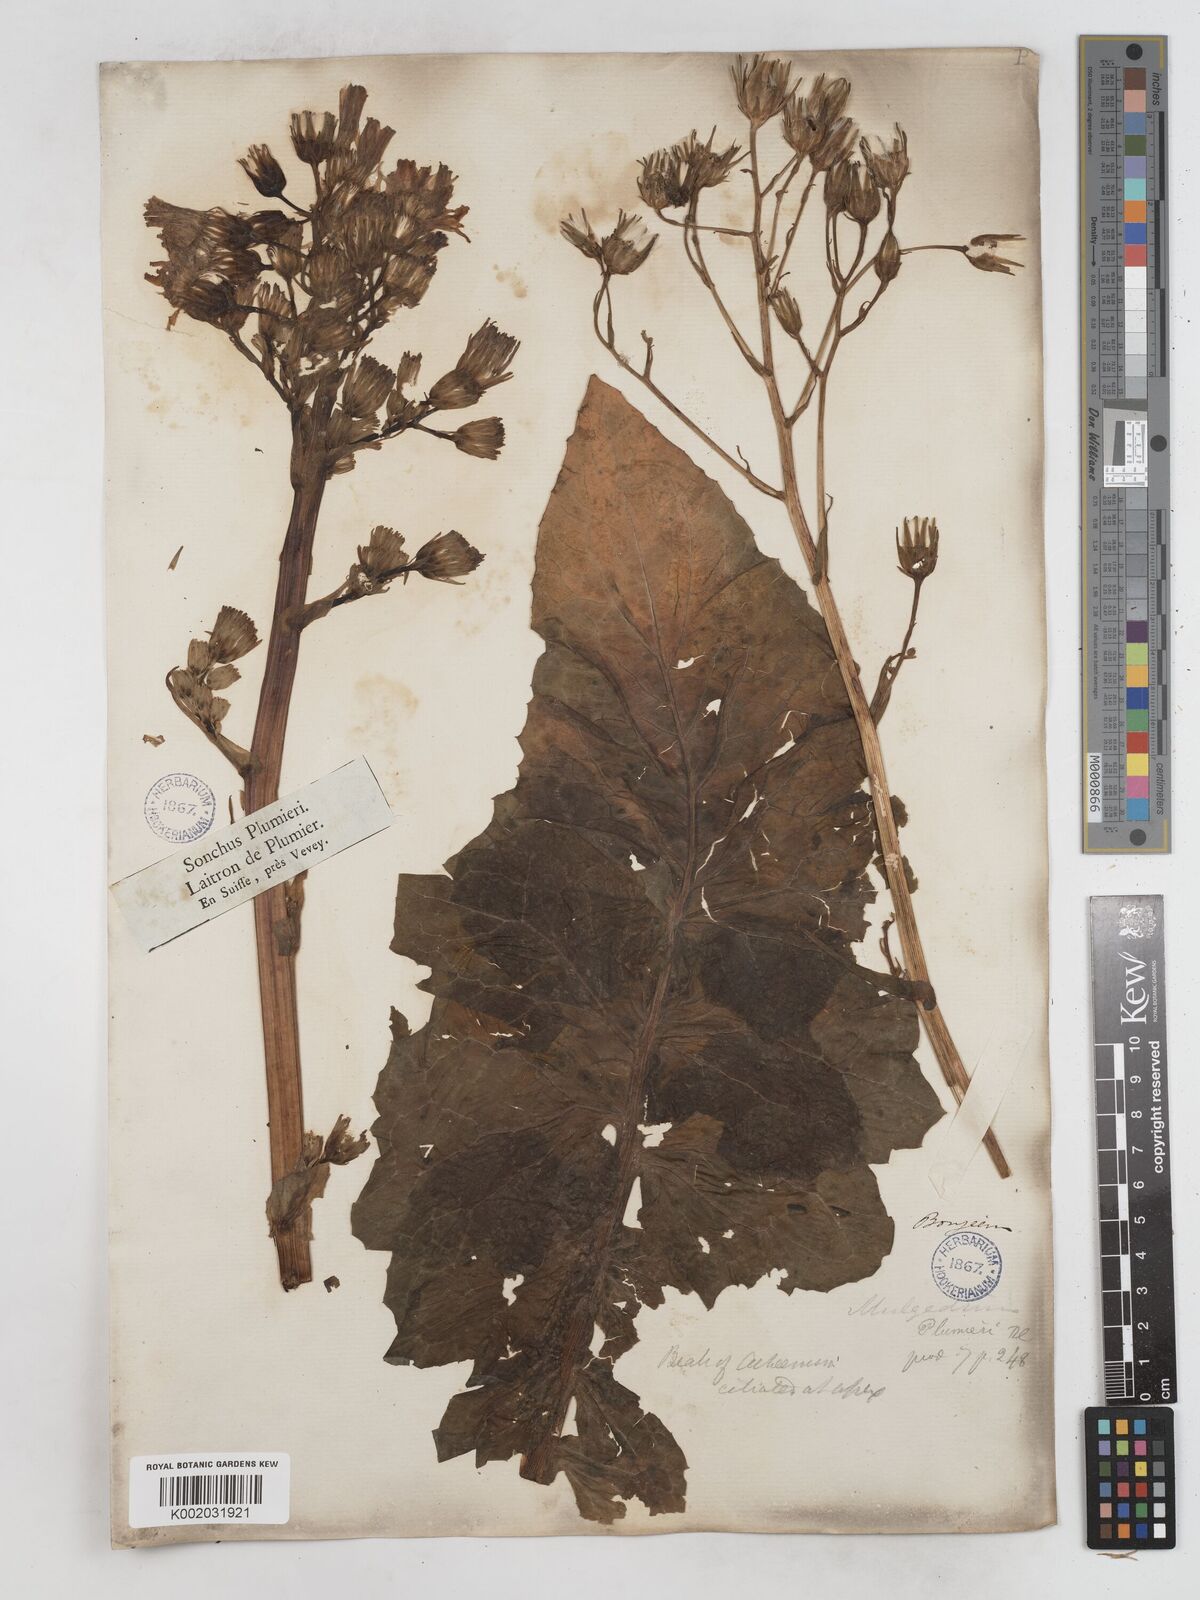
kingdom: Plantae
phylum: Tracheophyta
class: Magnoliopsida
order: Asterales
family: Asteraceae
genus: Lactuca
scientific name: Lactuca plumieri
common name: Hairless blue-sow-thistle
